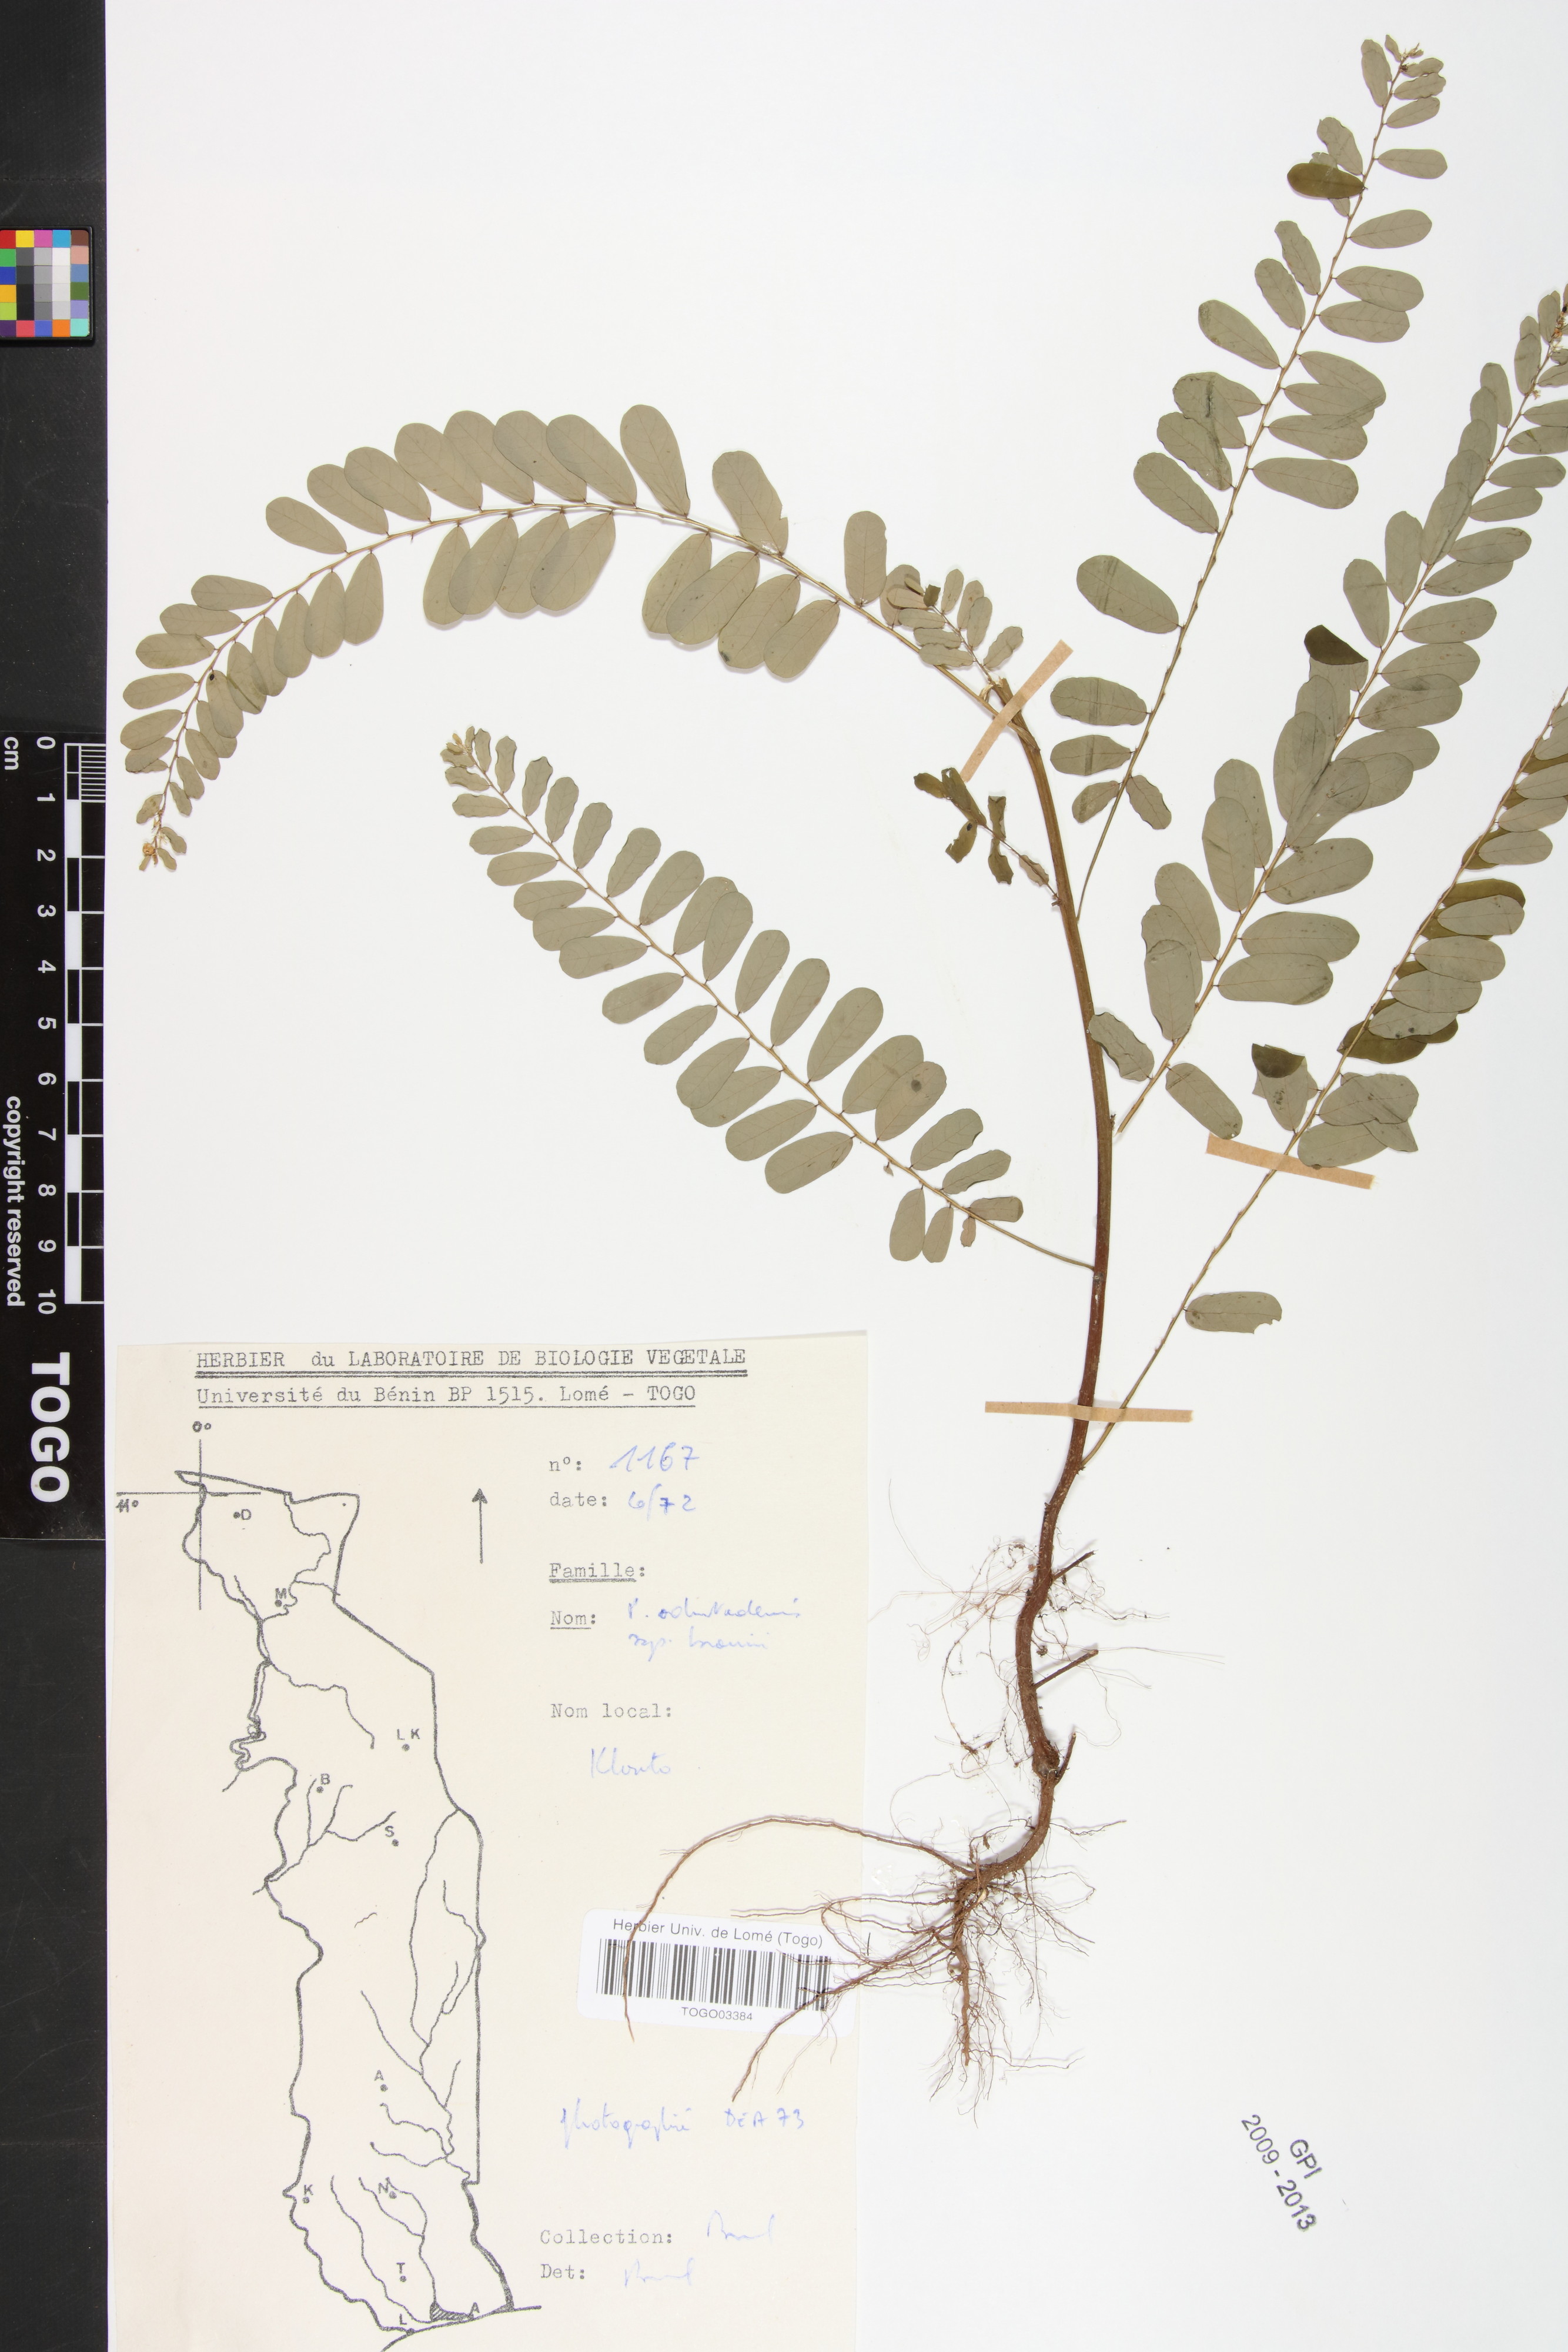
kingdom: Plantae
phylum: Tracheophyta
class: Magnoliopsida
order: Malpighiales
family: Phyllanthaceae
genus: Phyllanthus
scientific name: Phyllanthus odontadenius
